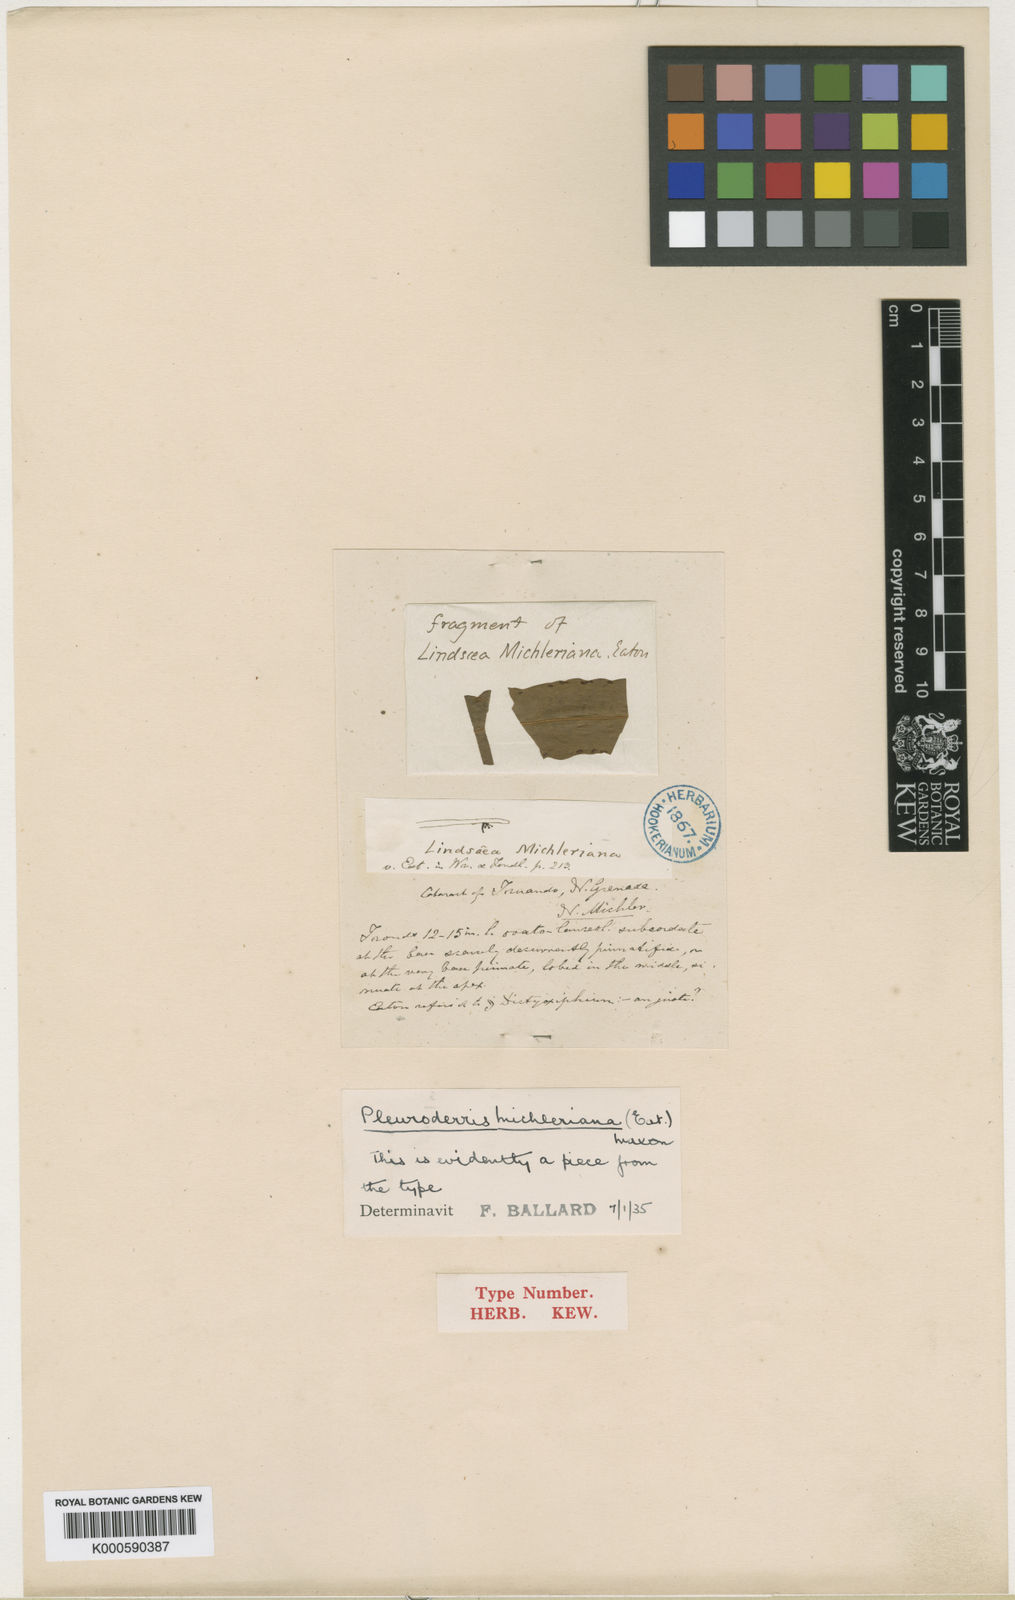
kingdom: Plantae
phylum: Tracheophyta
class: Polypodiopsida
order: Polypodiales
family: Tectariaceae
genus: Tectaria
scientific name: Tectaria michleriana
